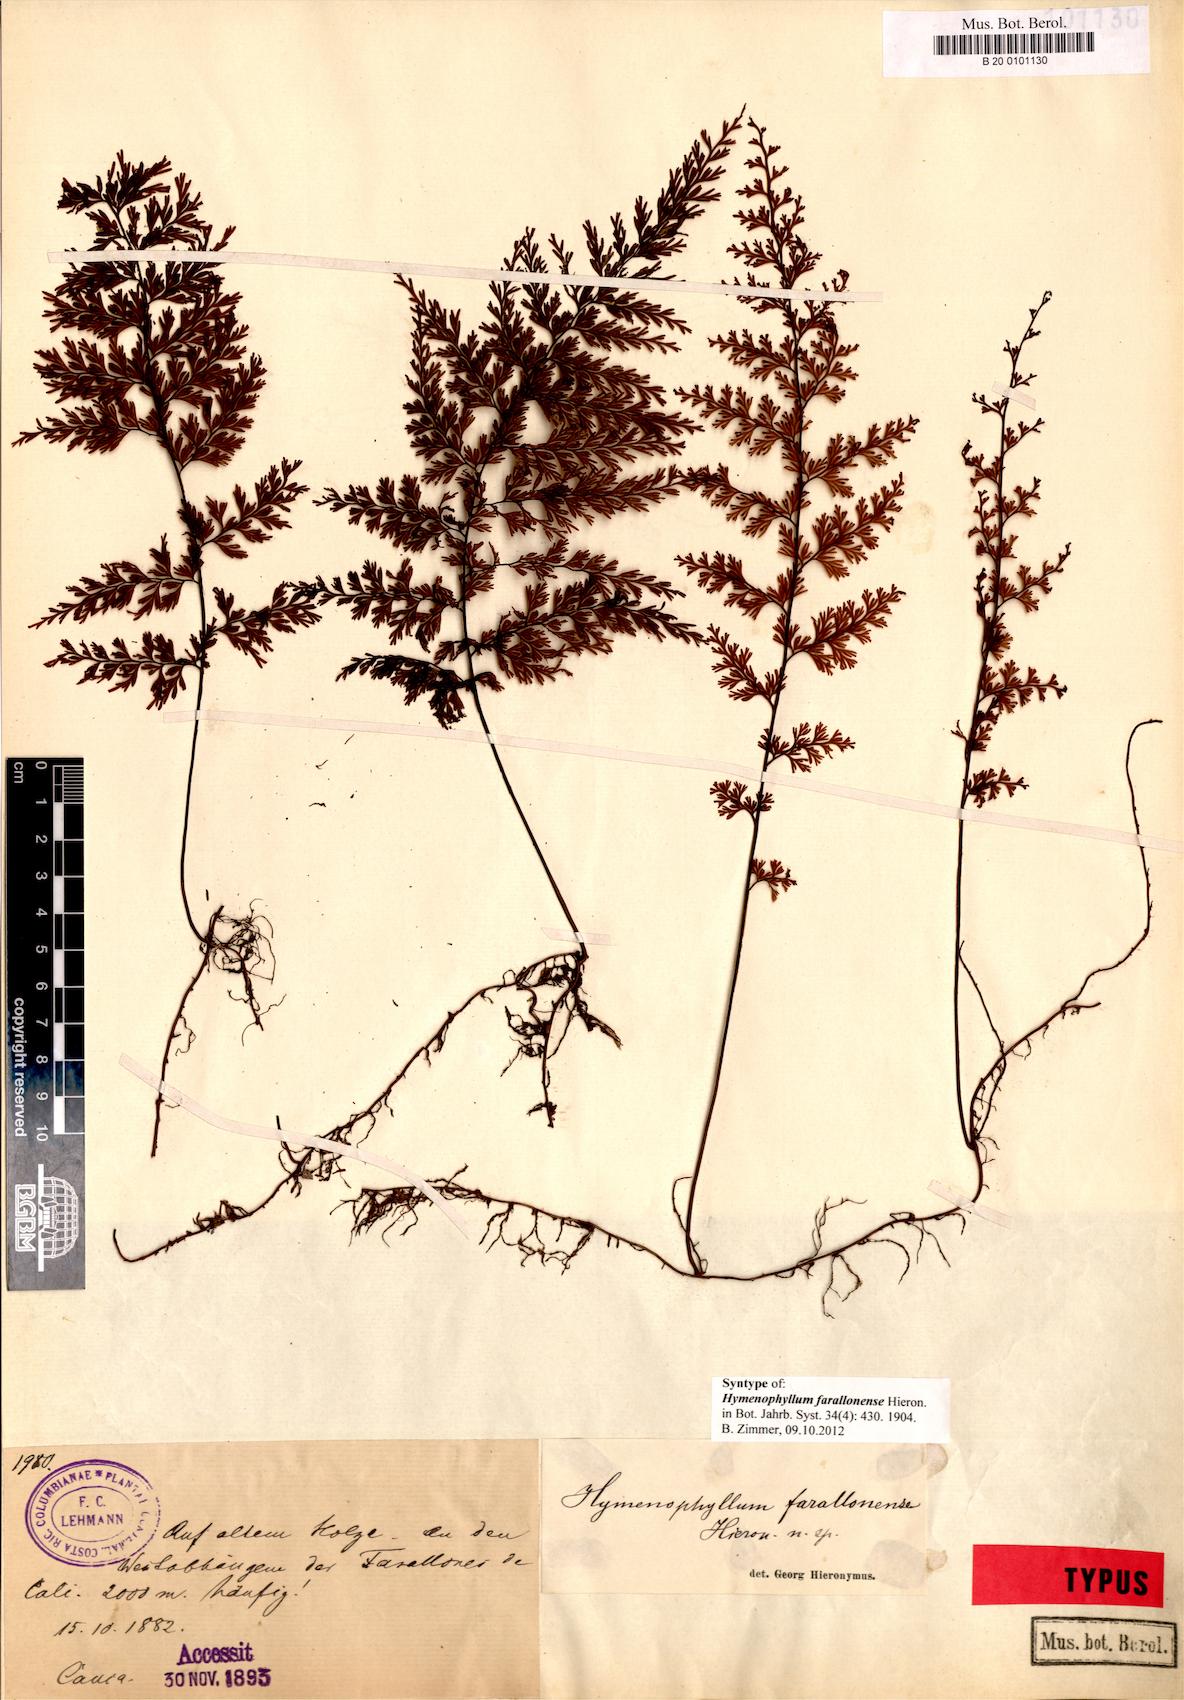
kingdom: Plantae
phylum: Tracheophyta
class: Polypodiopsida
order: Hymenophyllales
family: Hymenophyllaceae
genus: Hymenophyllum
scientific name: Hymenophyllum farallonense
